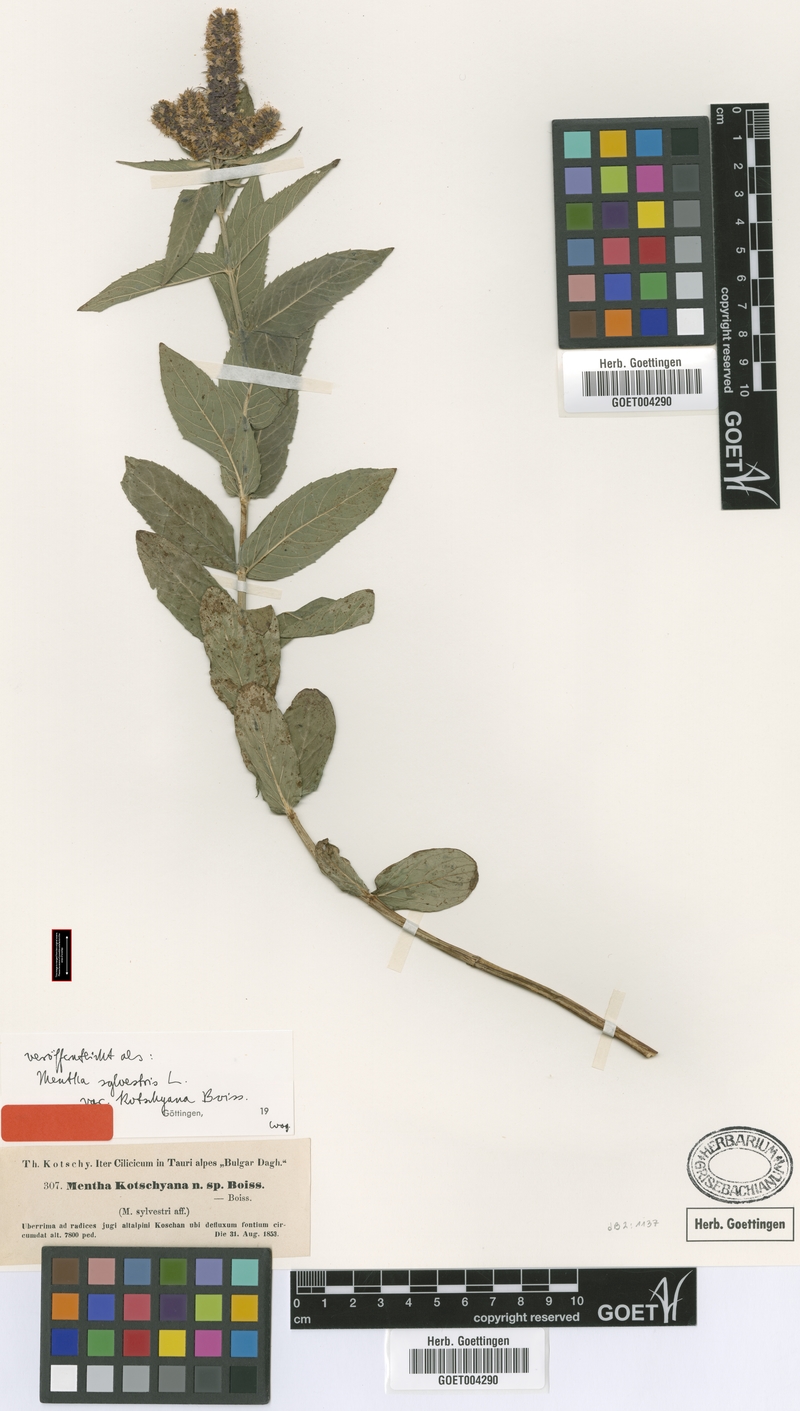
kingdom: Plantae
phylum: Tracheophyta
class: Magnoliopsida
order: Lamiales
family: Lamiaceae
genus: Mentha
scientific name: Mentha longifolia
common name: Horse mint
